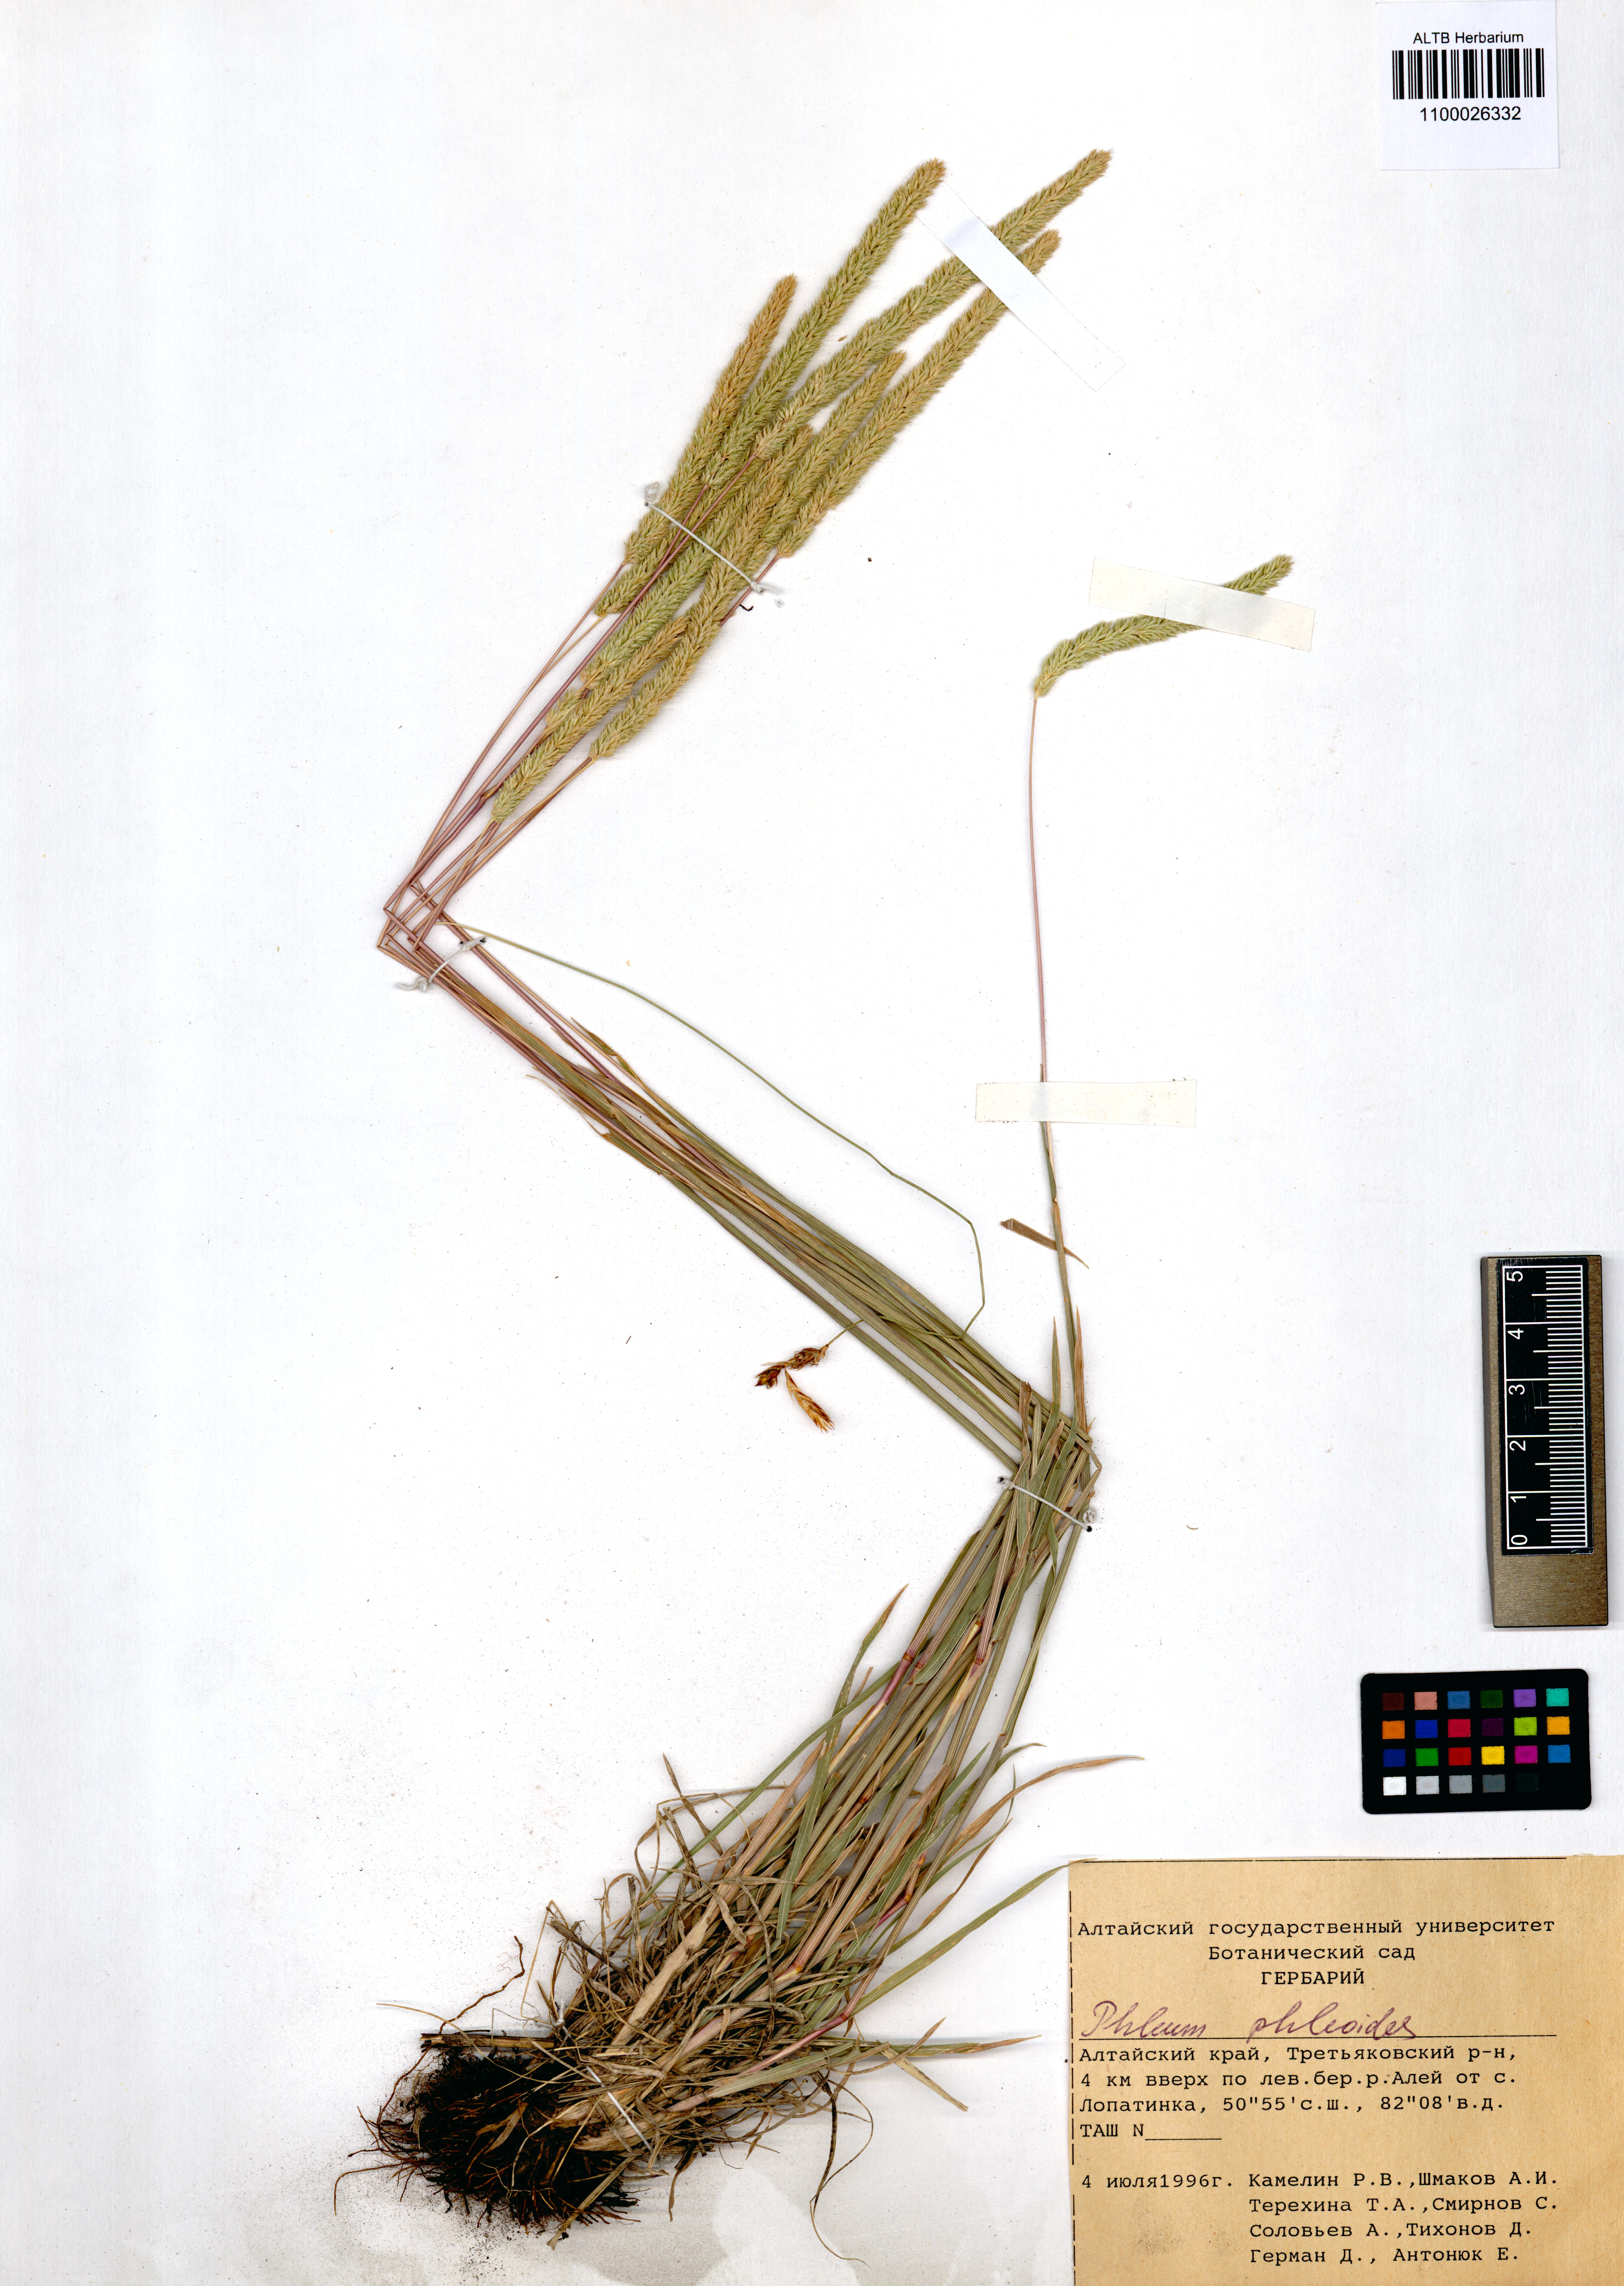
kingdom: Plantae
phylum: Tracheophyta
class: Liliopsida
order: Poales
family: Poaceae
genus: Phleum
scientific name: Phleum phleoides
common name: Purple-stem cat's-tail
